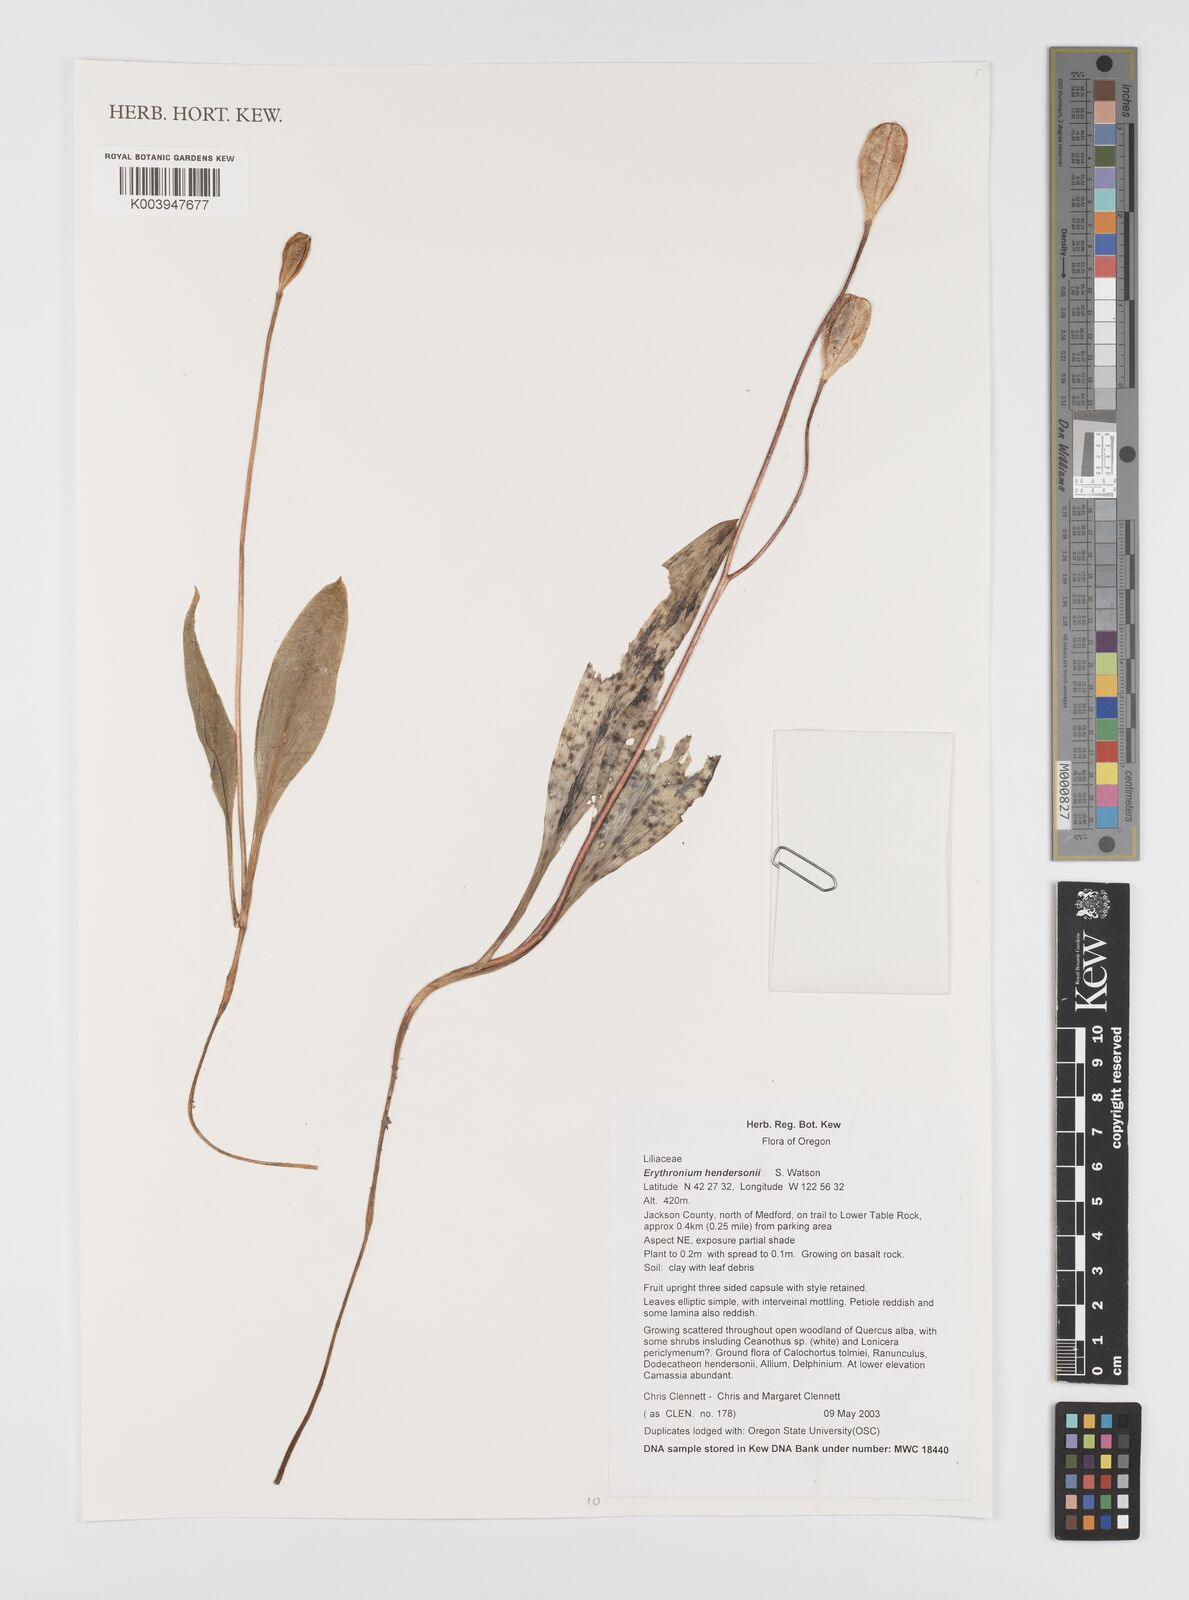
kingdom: Plantae
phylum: Tracheophyta
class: Liliopsida
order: Liliales
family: Liliaceae
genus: Erythronium
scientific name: Erythronium hendersonii
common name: Henderson's fawn-lily
